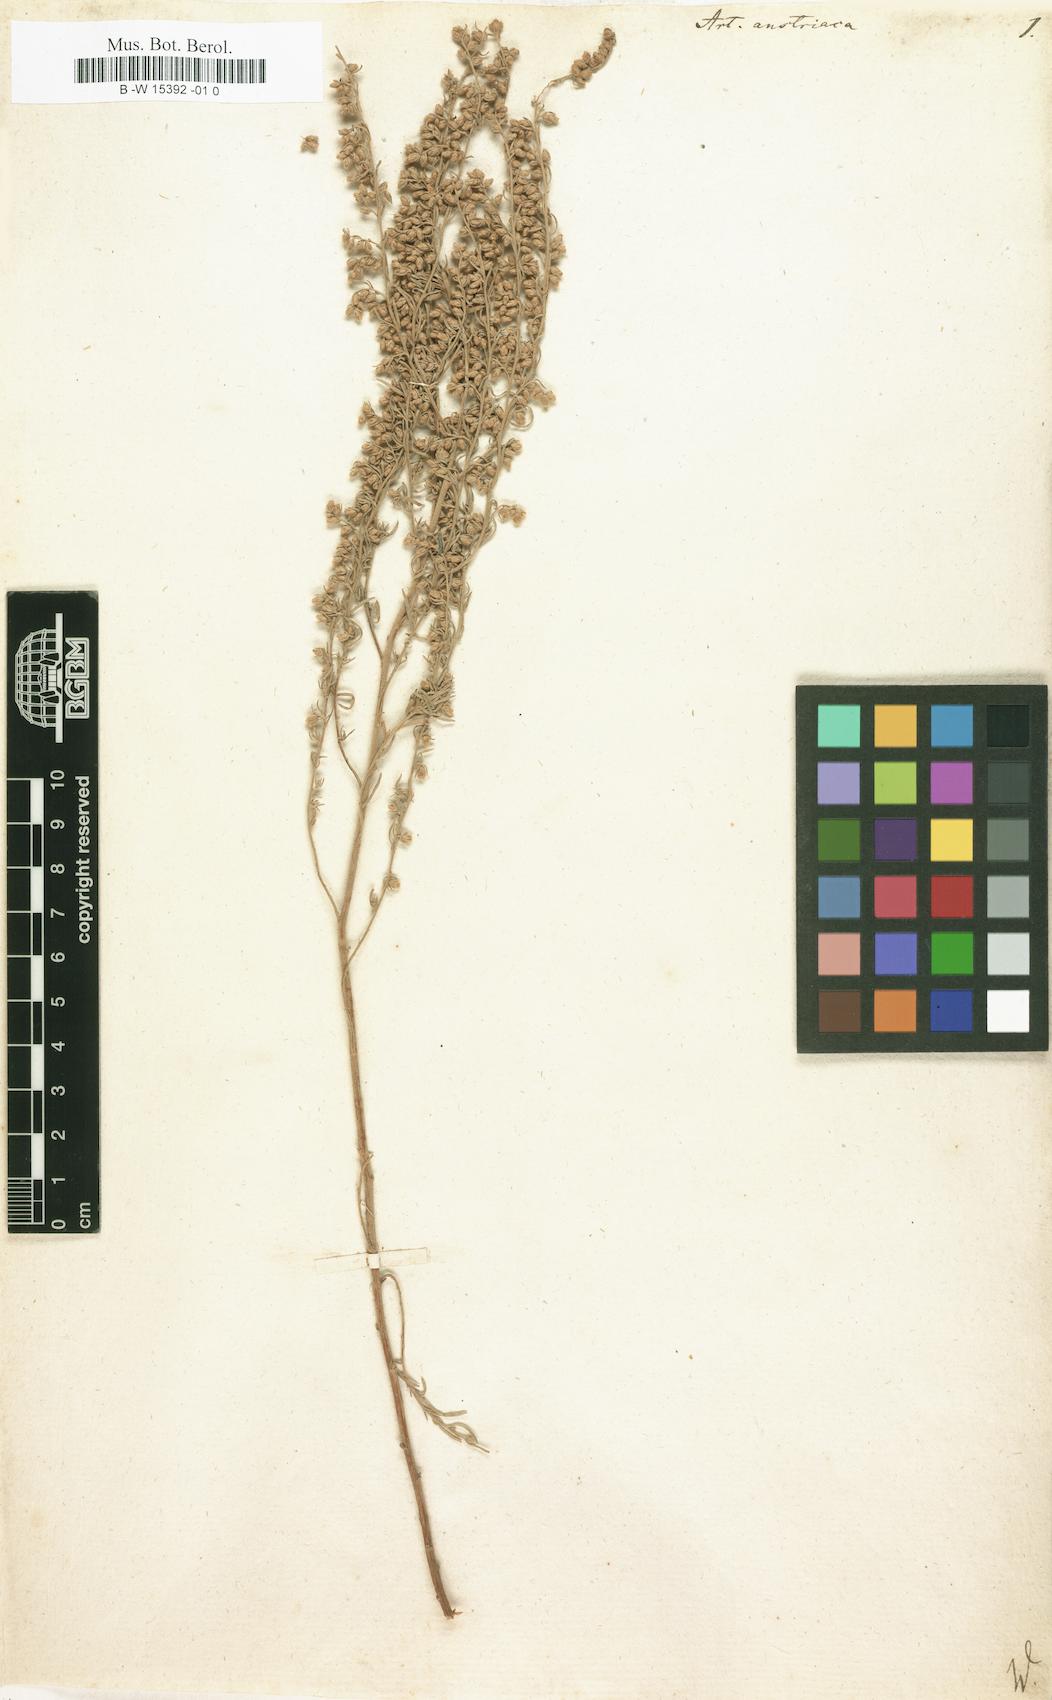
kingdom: Plantae
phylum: Tracheophyta
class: Magnoliopsida
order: Asterales
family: Asteraceae
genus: Artemisia
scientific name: Artemisia austriaca
